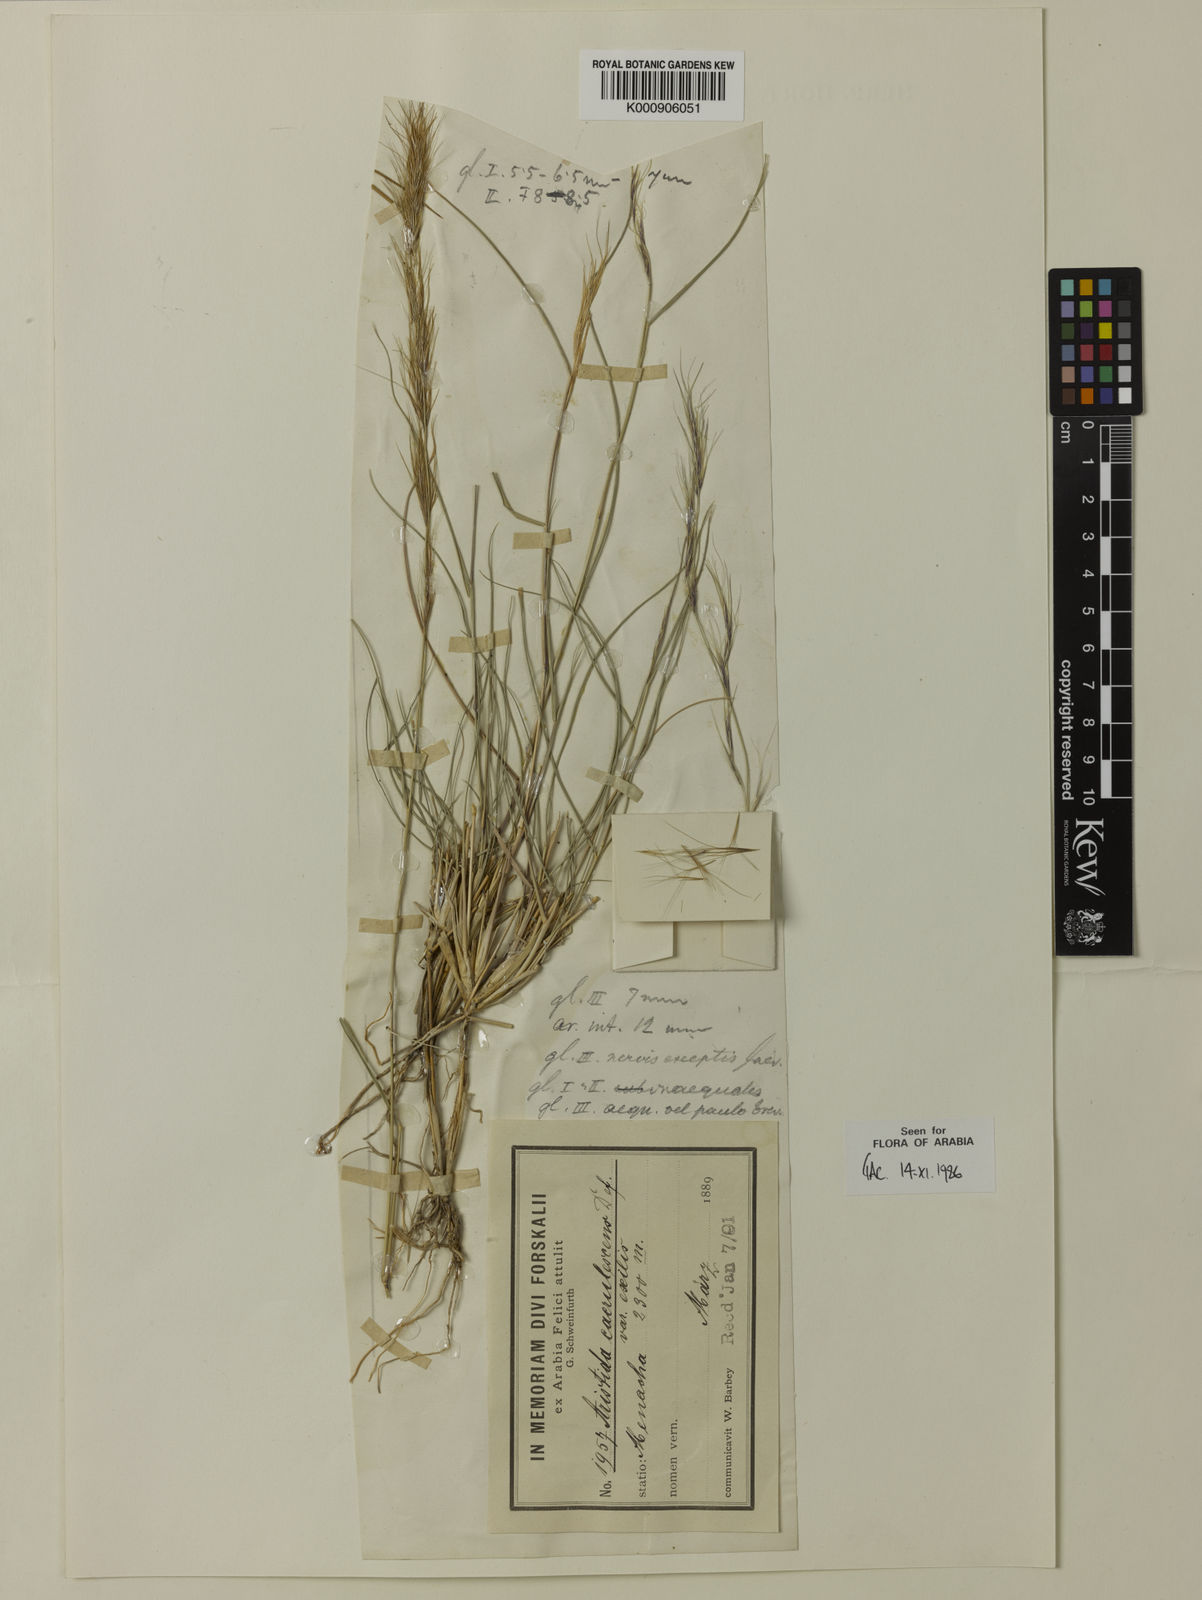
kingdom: Plantae
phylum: Tracheophyta
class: Liliopsida
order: Poales
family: Poaceae
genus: Aristida
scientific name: Aristida adscensionis
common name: Sixweeks threeawn
